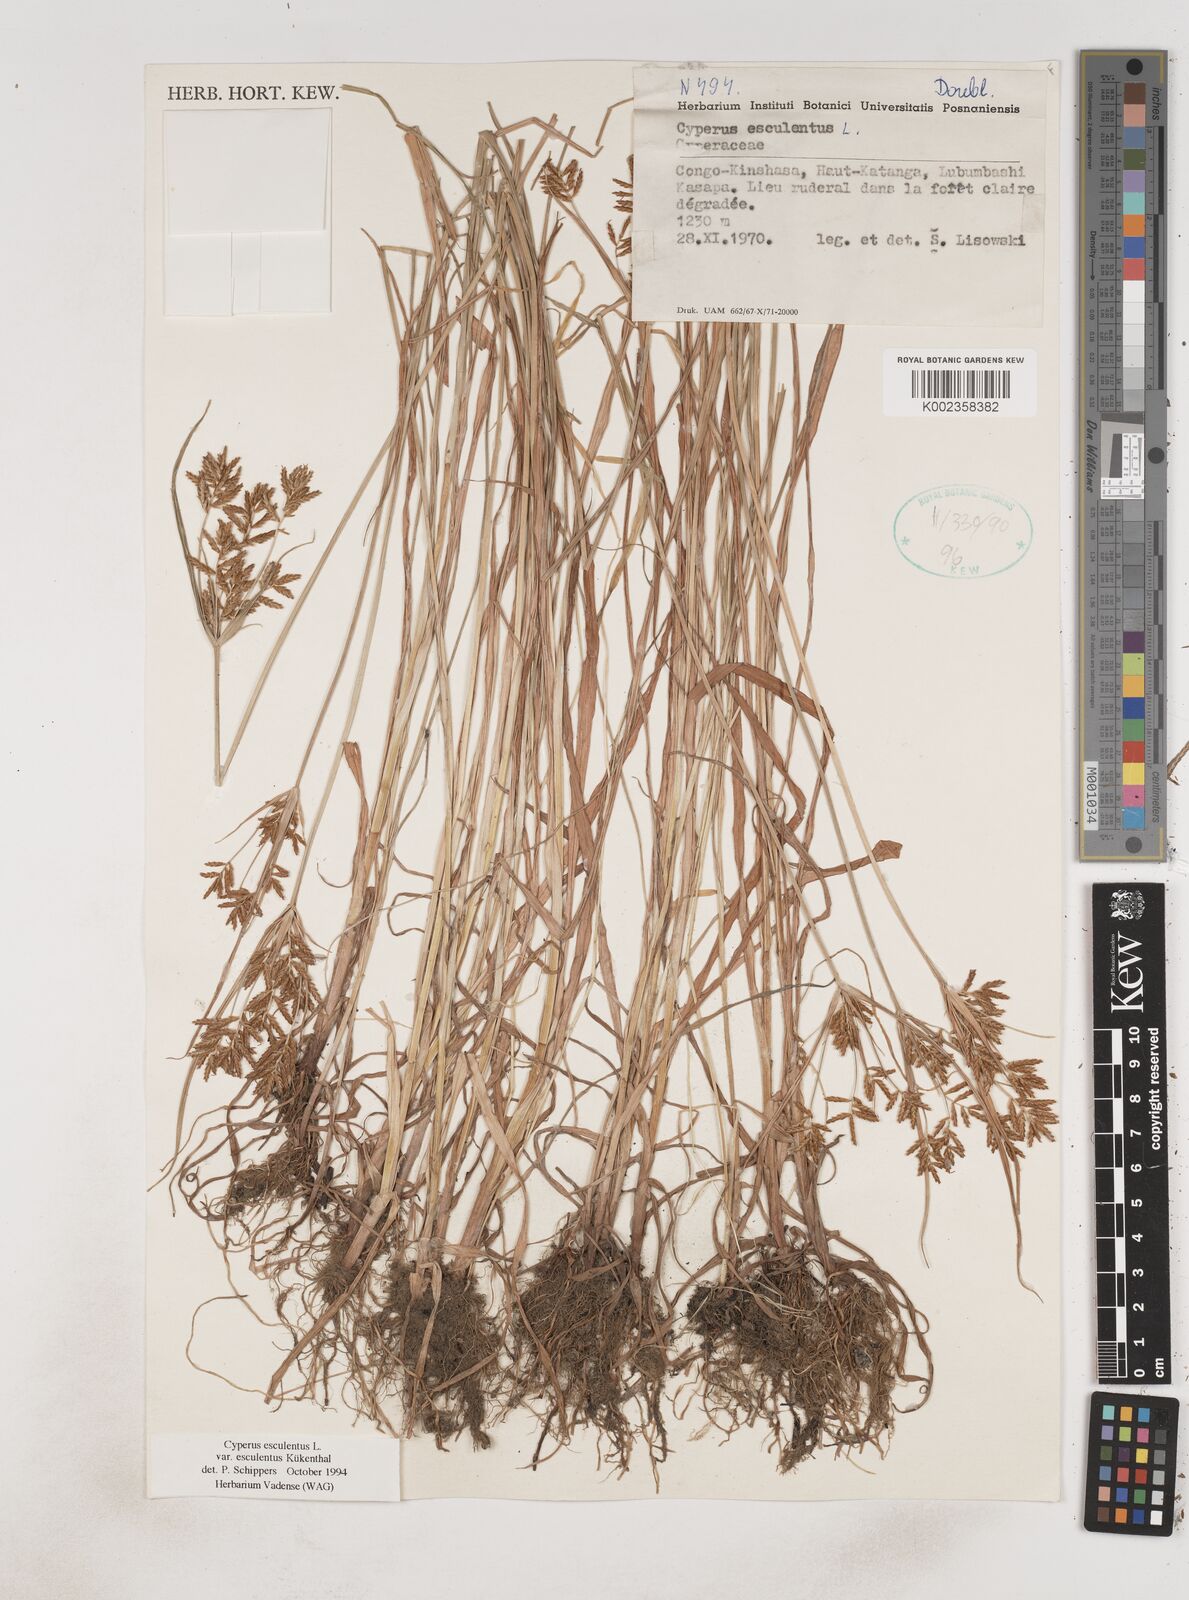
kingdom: Plantae
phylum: Tracheophyta
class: Liliopsida
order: Poales
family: Cyperaceae
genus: Cyperus
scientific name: Cyperus esculentus
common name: Yellow nutsedge
